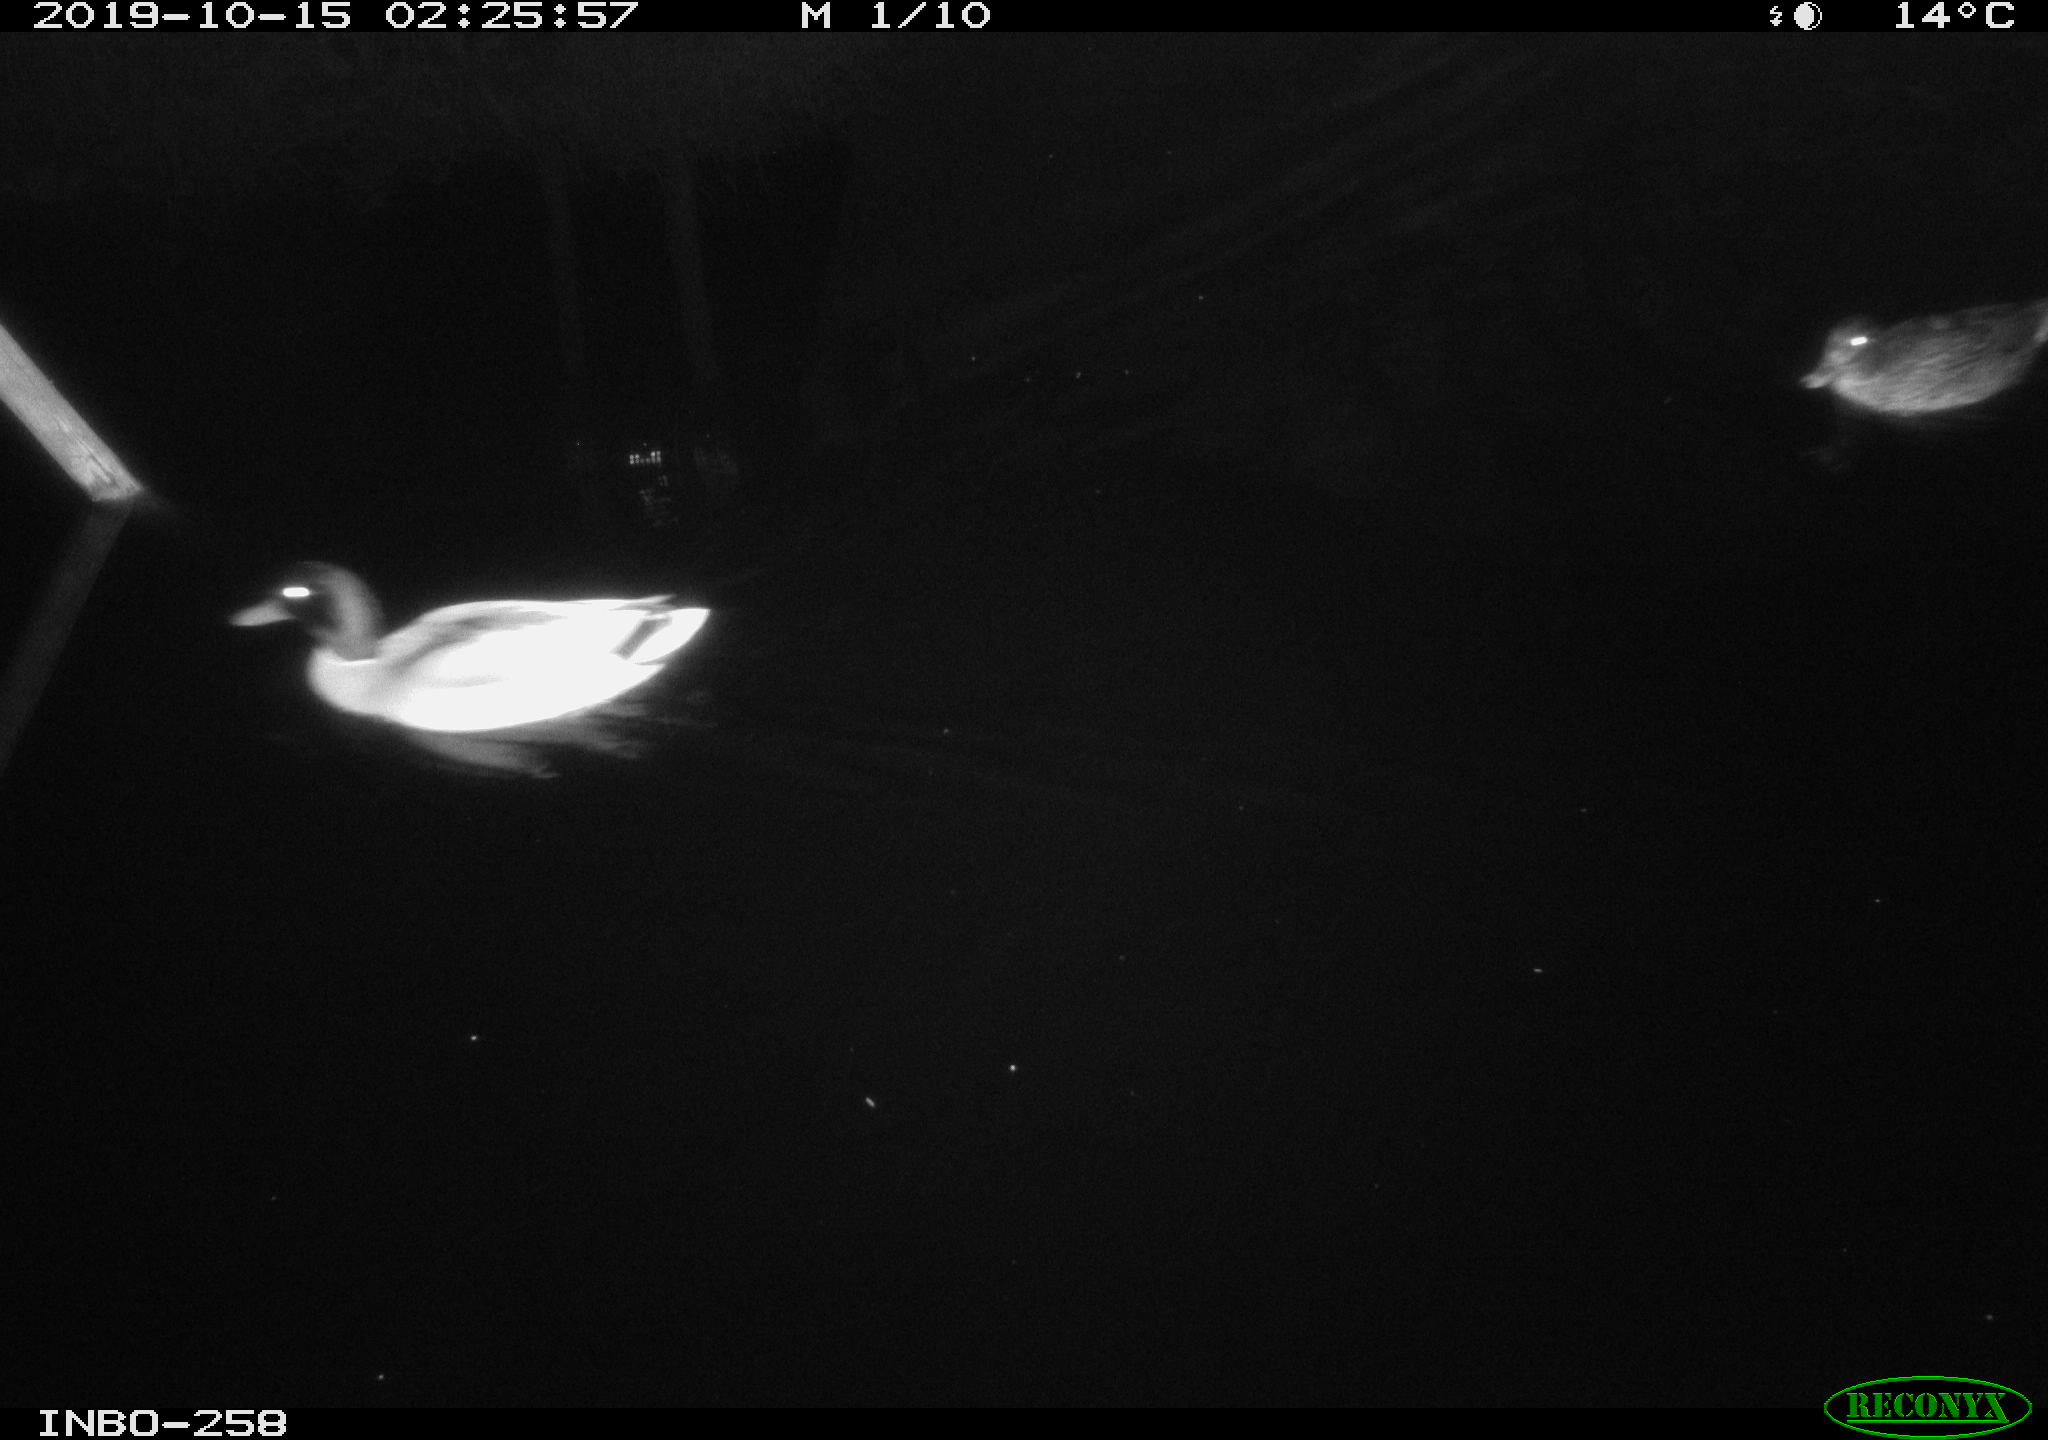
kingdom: Animalia
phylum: Chordata
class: Aves
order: Anseriformes
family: Anatidae
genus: Anas
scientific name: Anas platyrhynchos
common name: Mallard
